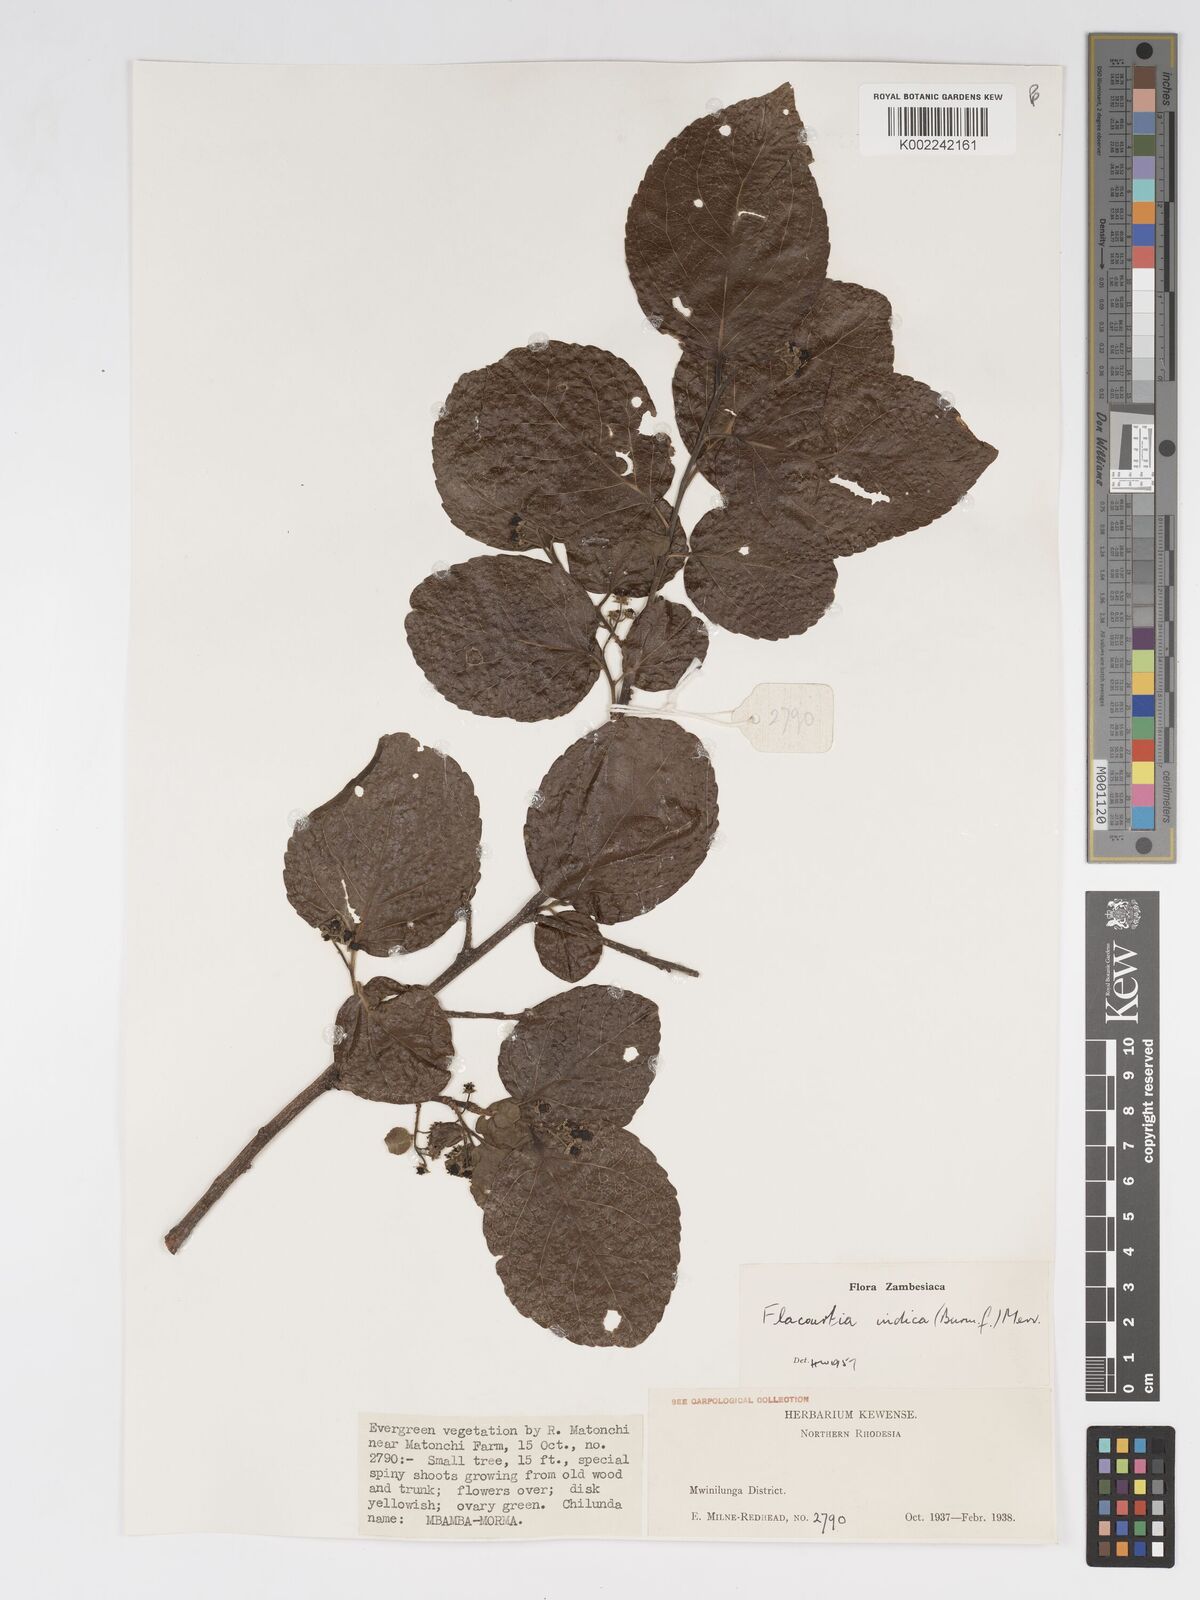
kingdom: Plantae
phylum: Tracheophyta
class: Magnoliopsida
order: Malpighiales
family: Salicaceae
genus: Flacourtia
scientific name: Flacourtia indica
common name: Governor's plum
